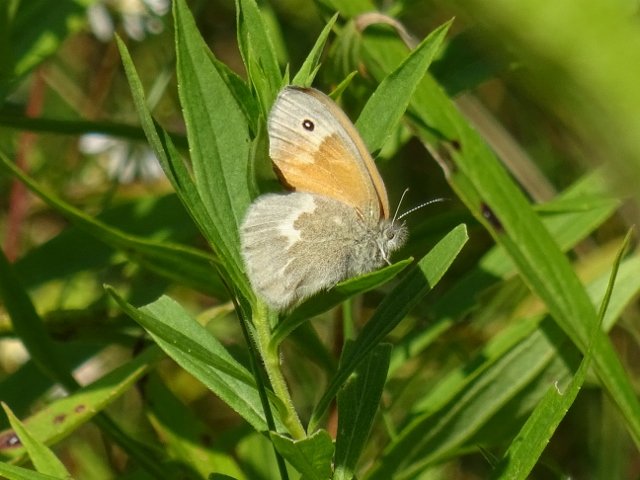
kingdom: Animalia
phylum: Arthropoda
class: Insecta
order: Lepidoptera
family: Nymphalidae
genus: Coenonympha
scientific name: Coenonympha tullia
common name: Large Heath
